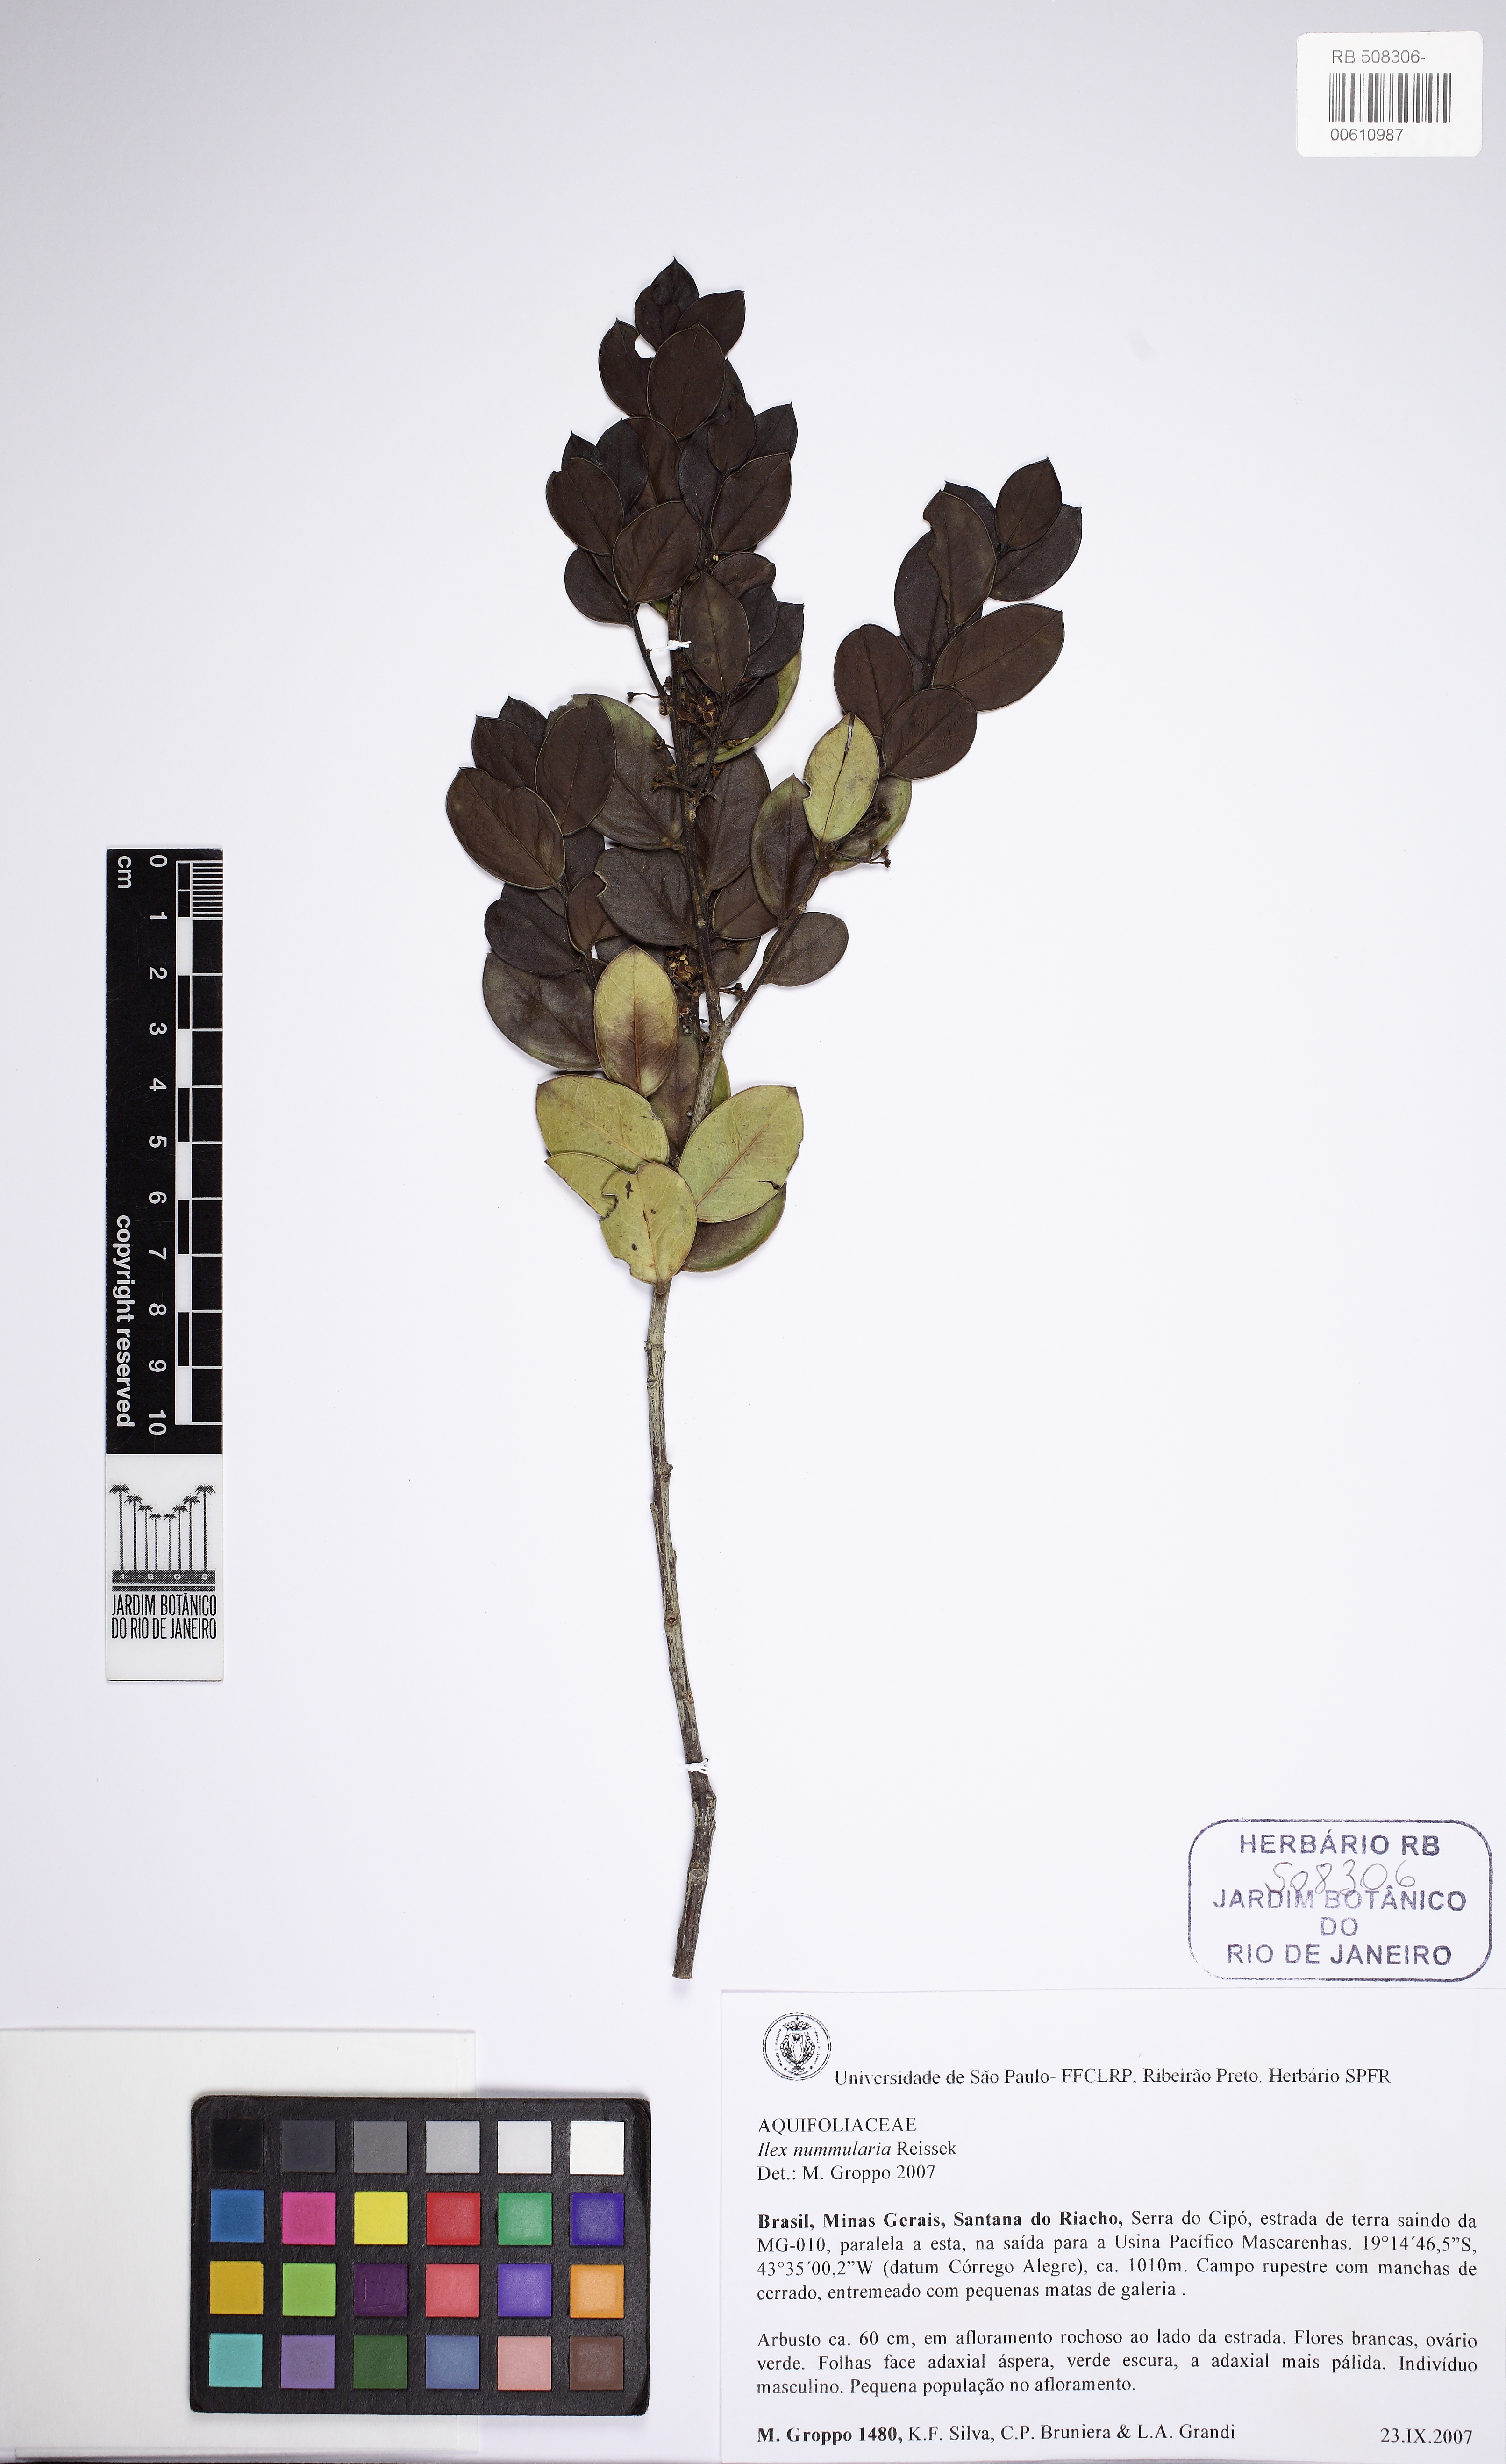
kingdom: Plantae
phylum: Tracheophyta
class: Magnoliopsida
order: Aquifoliales
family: Aquifoliaceae
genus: Ilex
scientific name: Ilex nummularia
